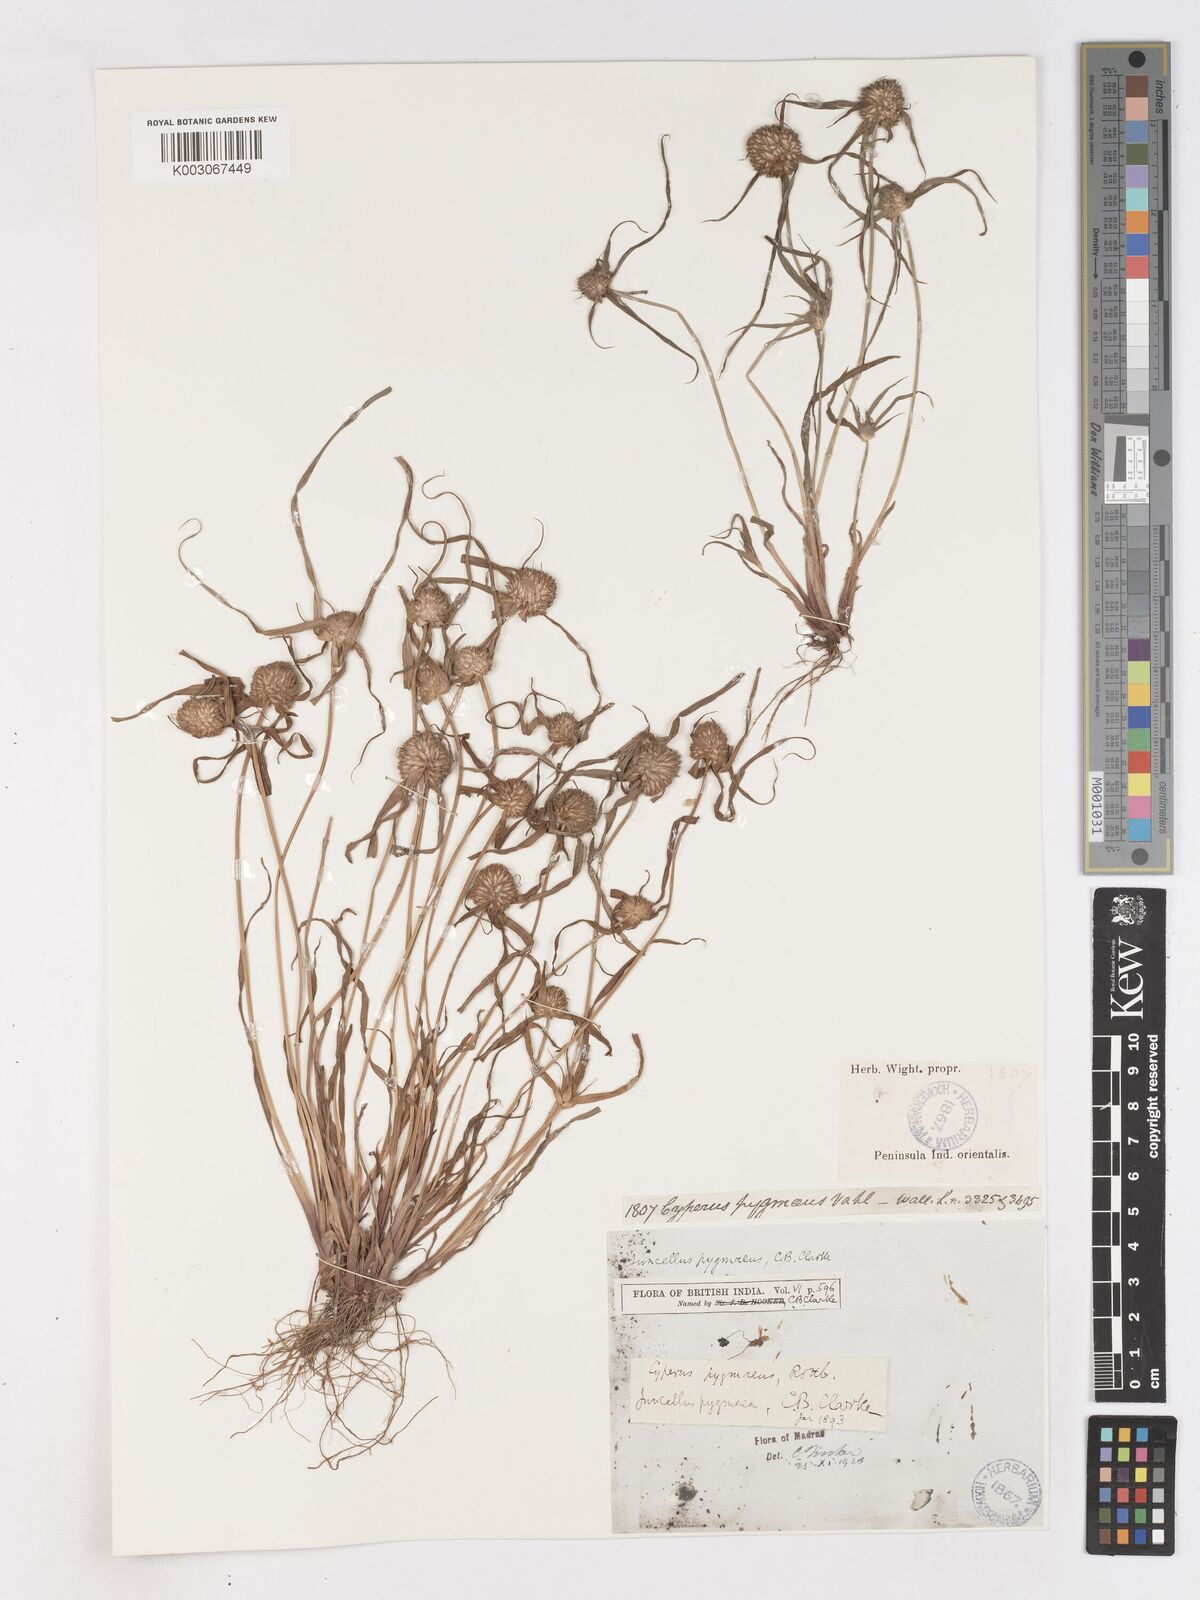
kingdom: Plantae
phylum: Tracheophyta
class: Liliopsida
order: Poales
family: Cyperaceae
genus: Cyperus
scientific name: Cyperus michelianus
